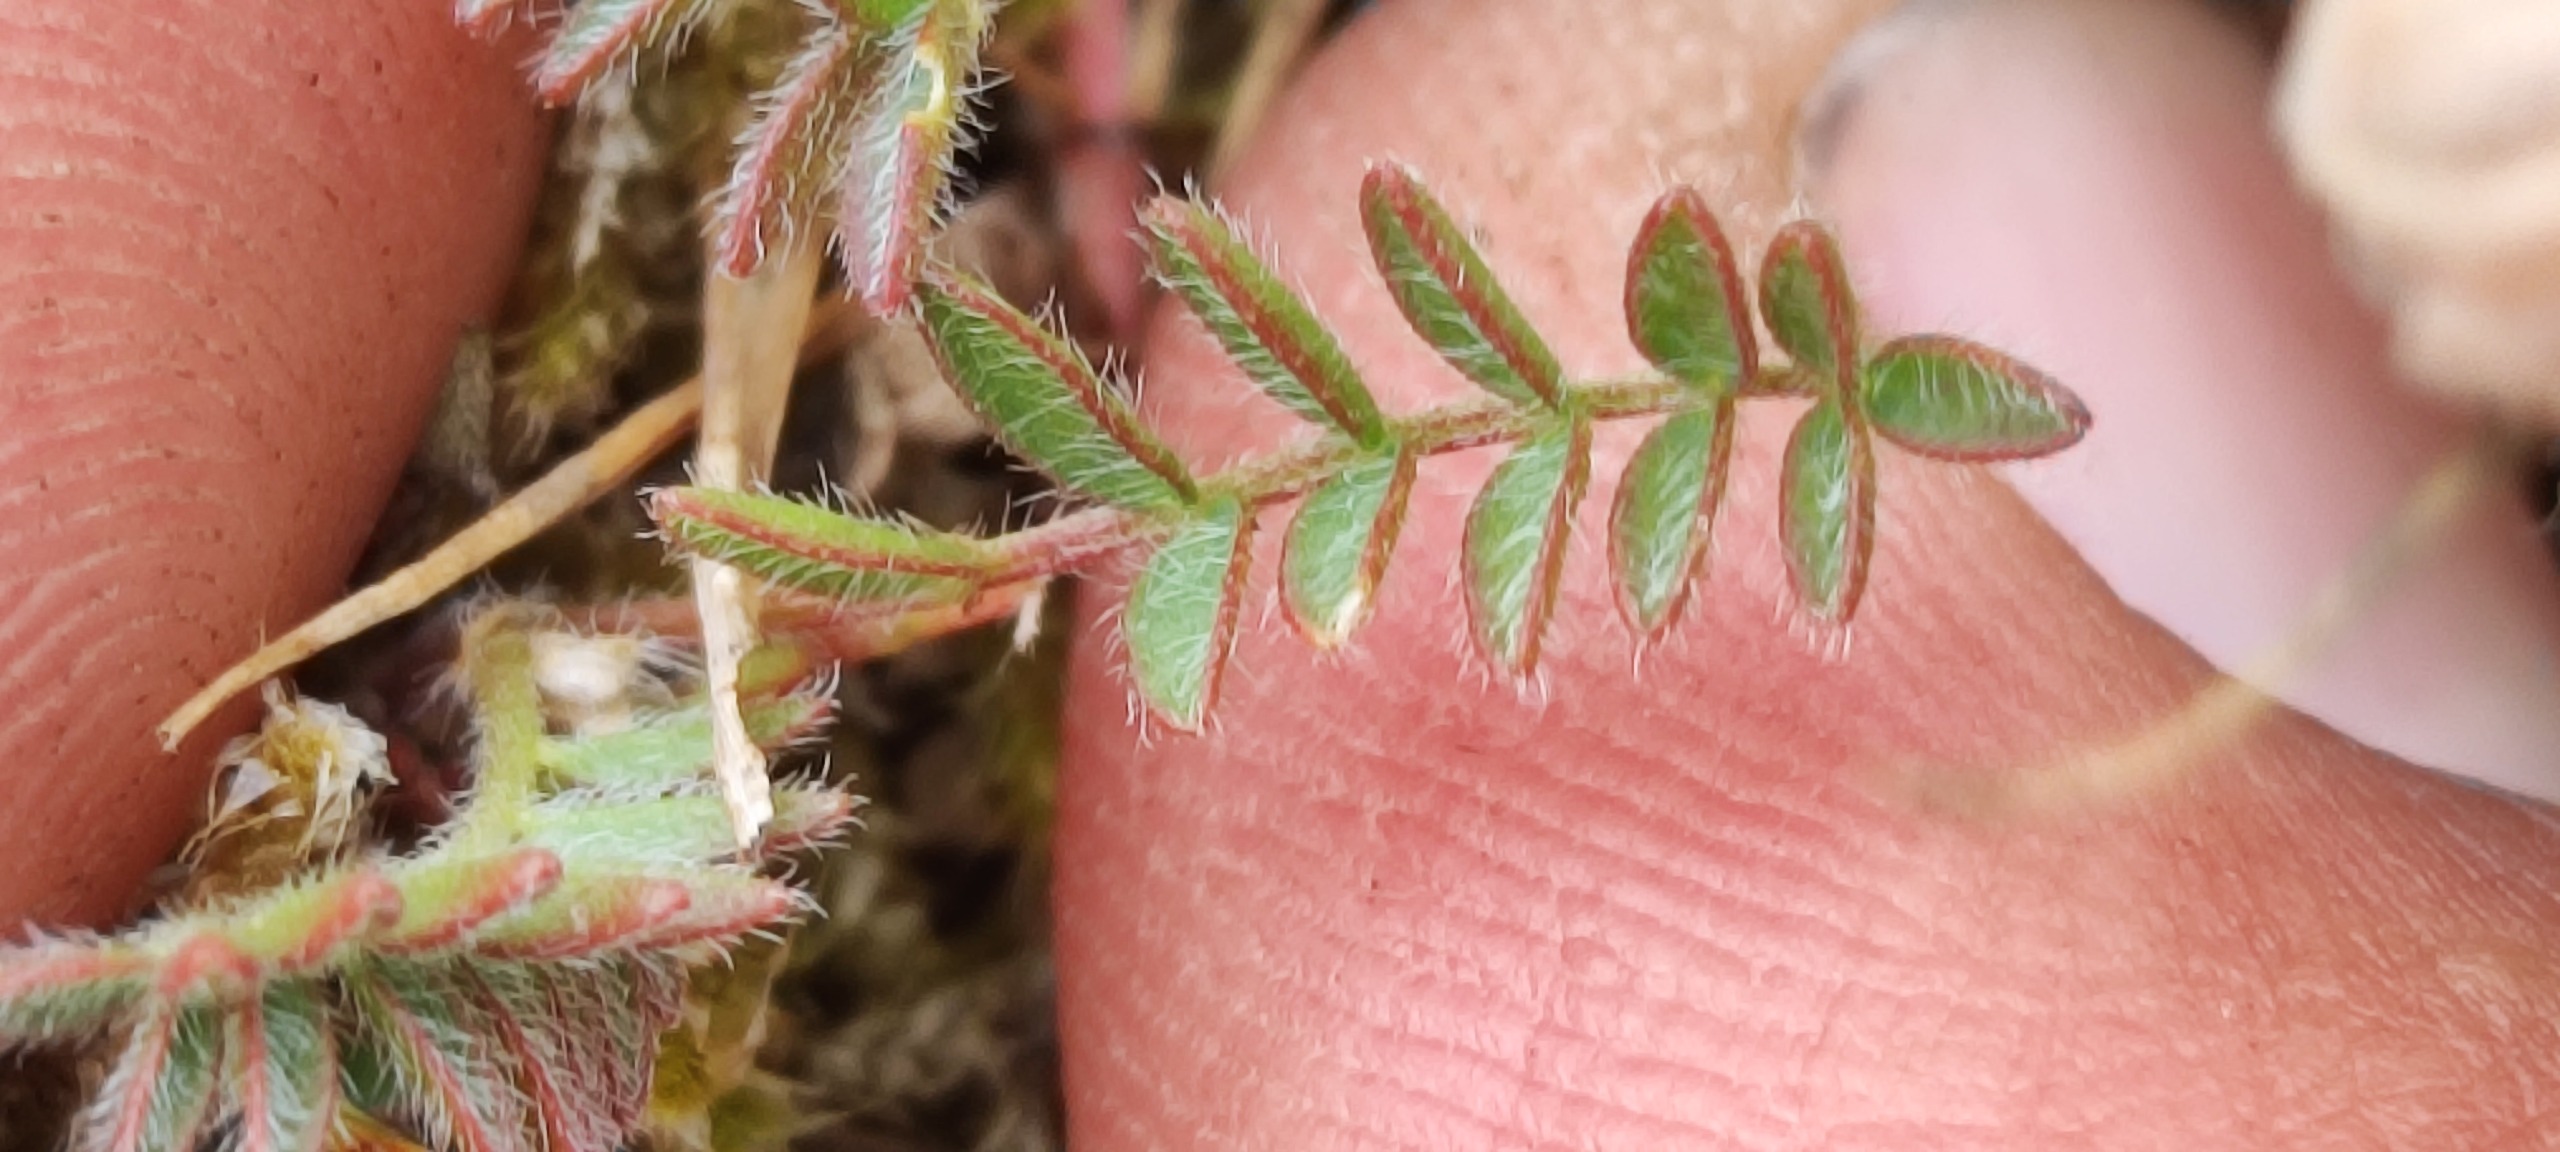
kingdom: Plantae
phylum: Tracheophyta
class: Magnoliopsida
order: Fabales
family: Fabaceae
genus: Astragalus
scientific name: Astragalus danicus
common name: Dansk astragel
